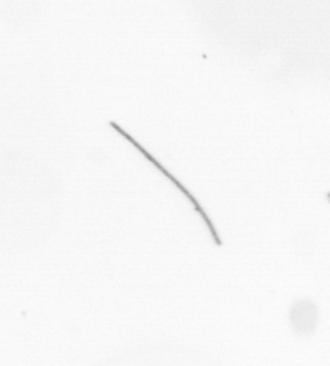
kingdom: Chromista
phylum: Ochrophyta
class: Bacillariophyceae
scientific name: Bacillariophyceae
